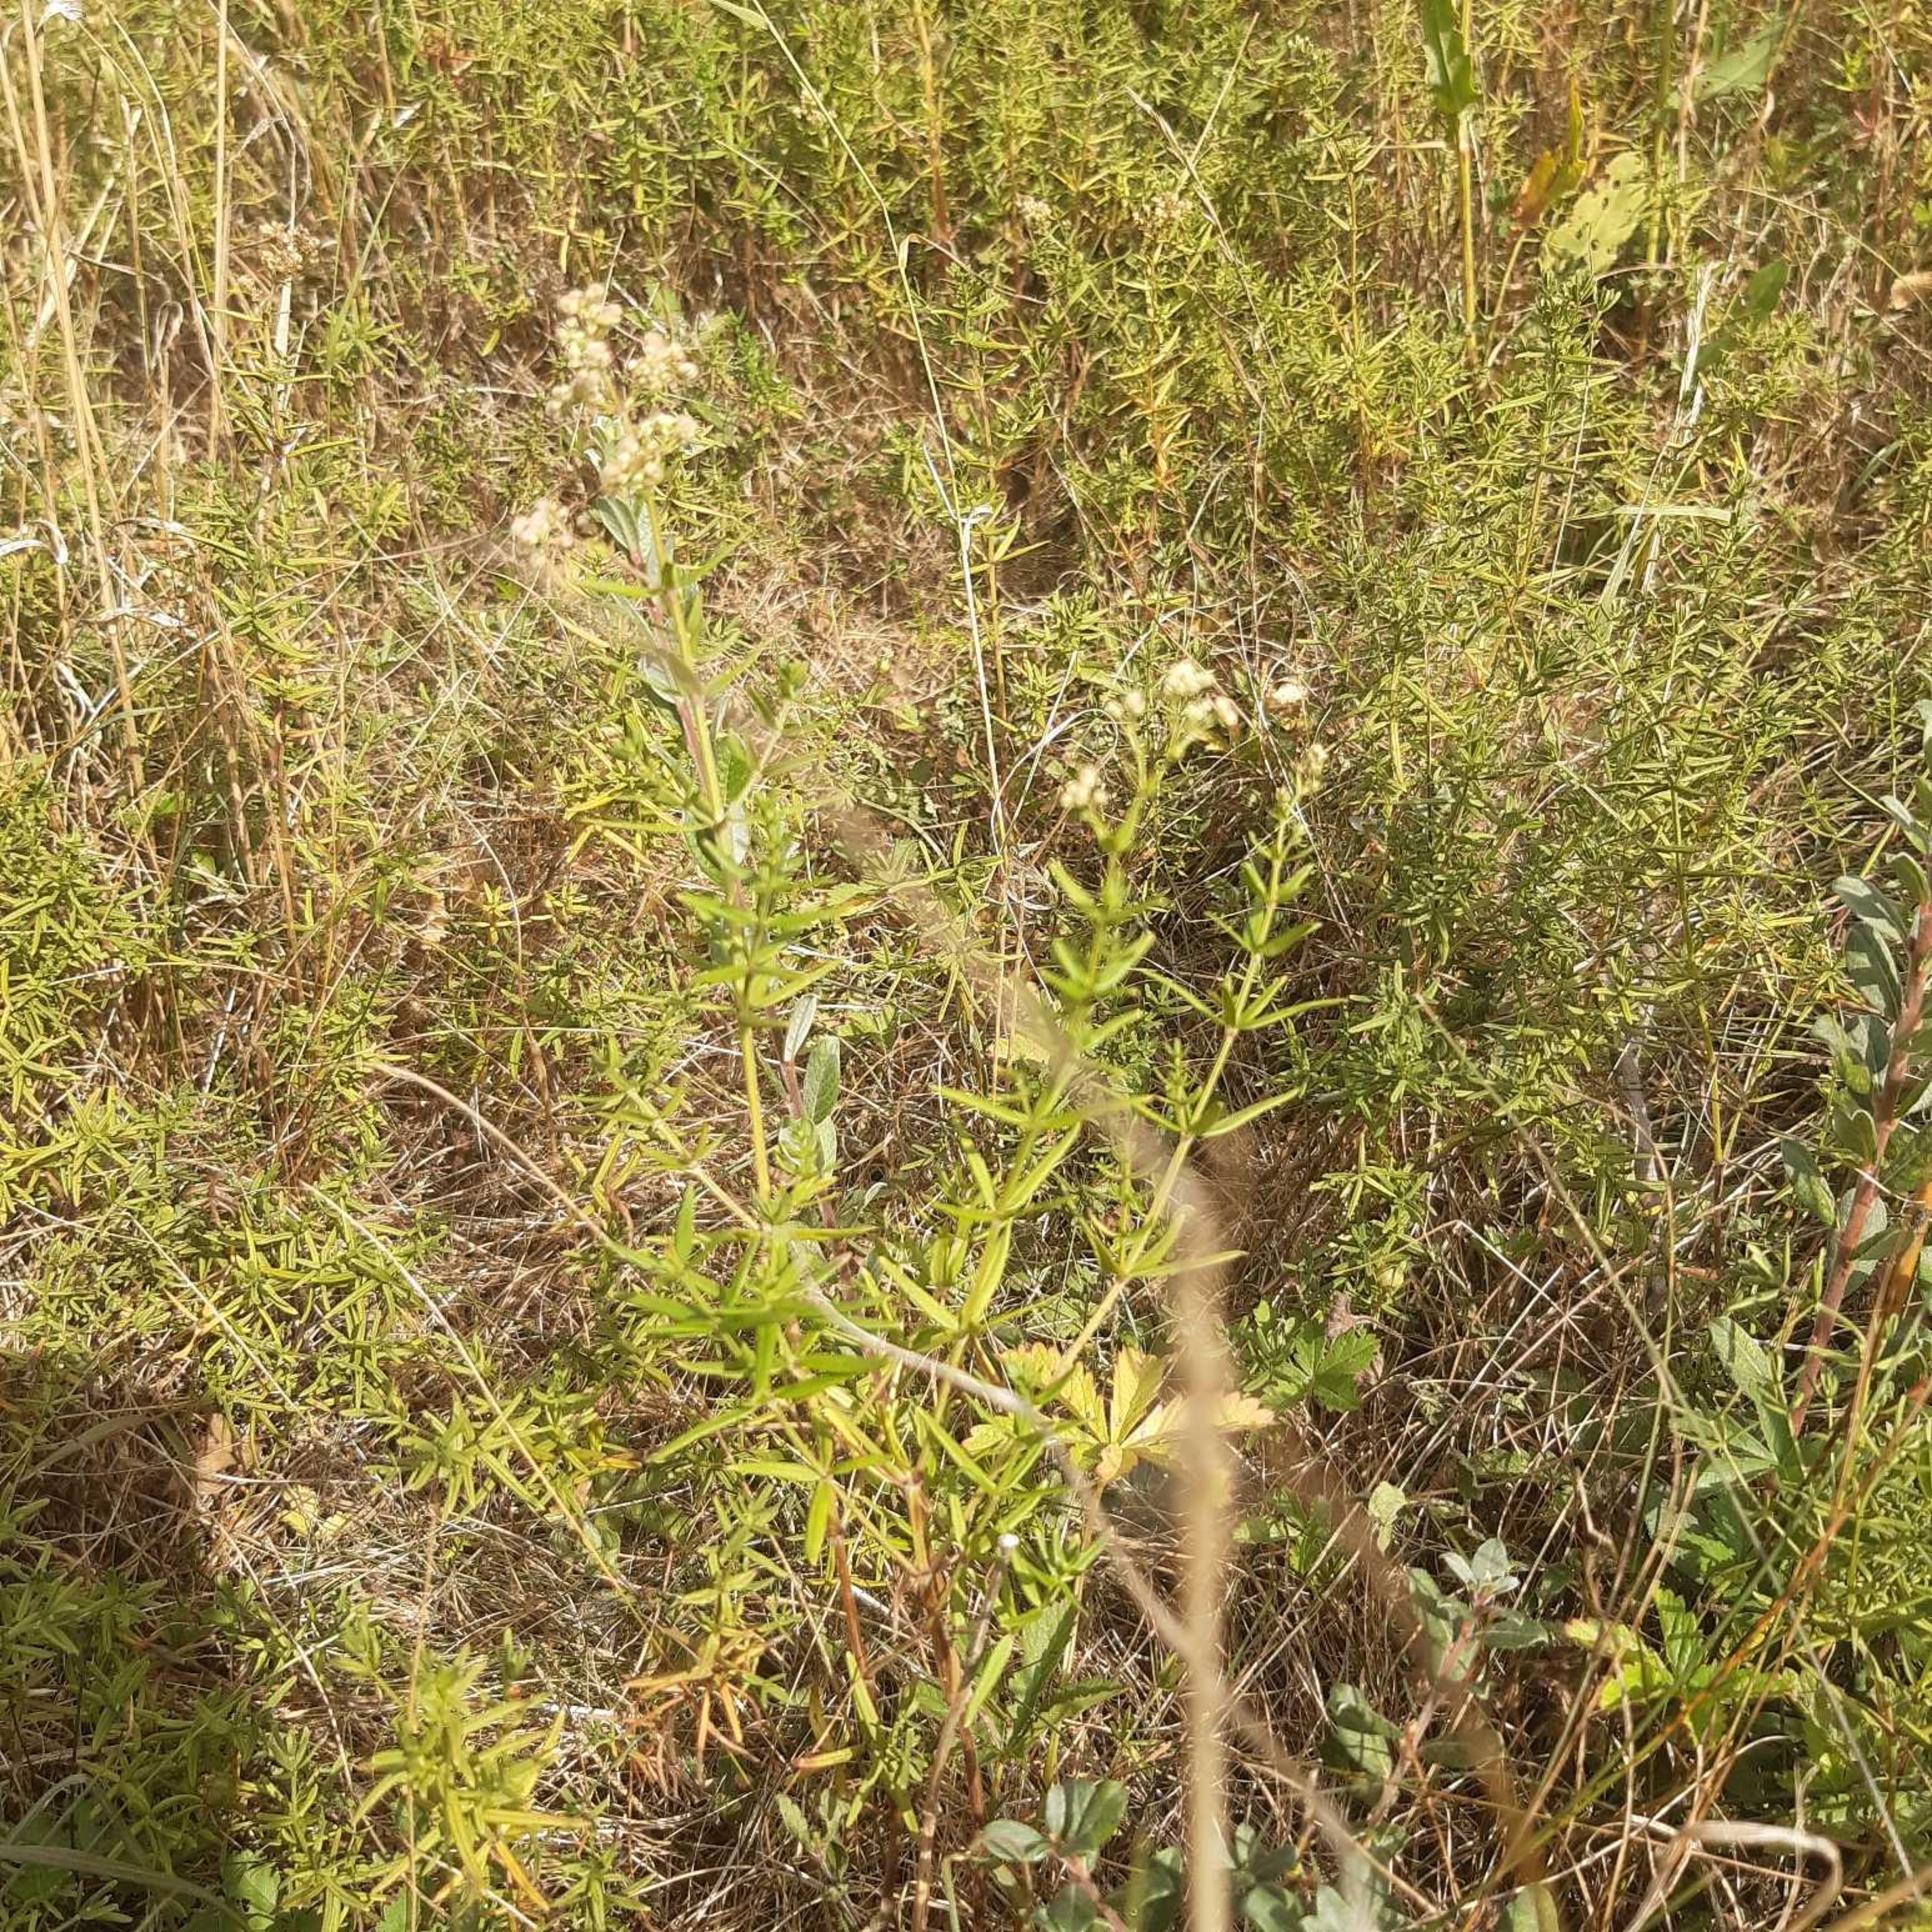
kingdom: Plantae
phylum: Tracheophyta
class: Magnoliopsida
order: Gentianales
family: Rubiaceae
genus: Galium
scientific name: Galium boreale
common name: Trenervet snerre
